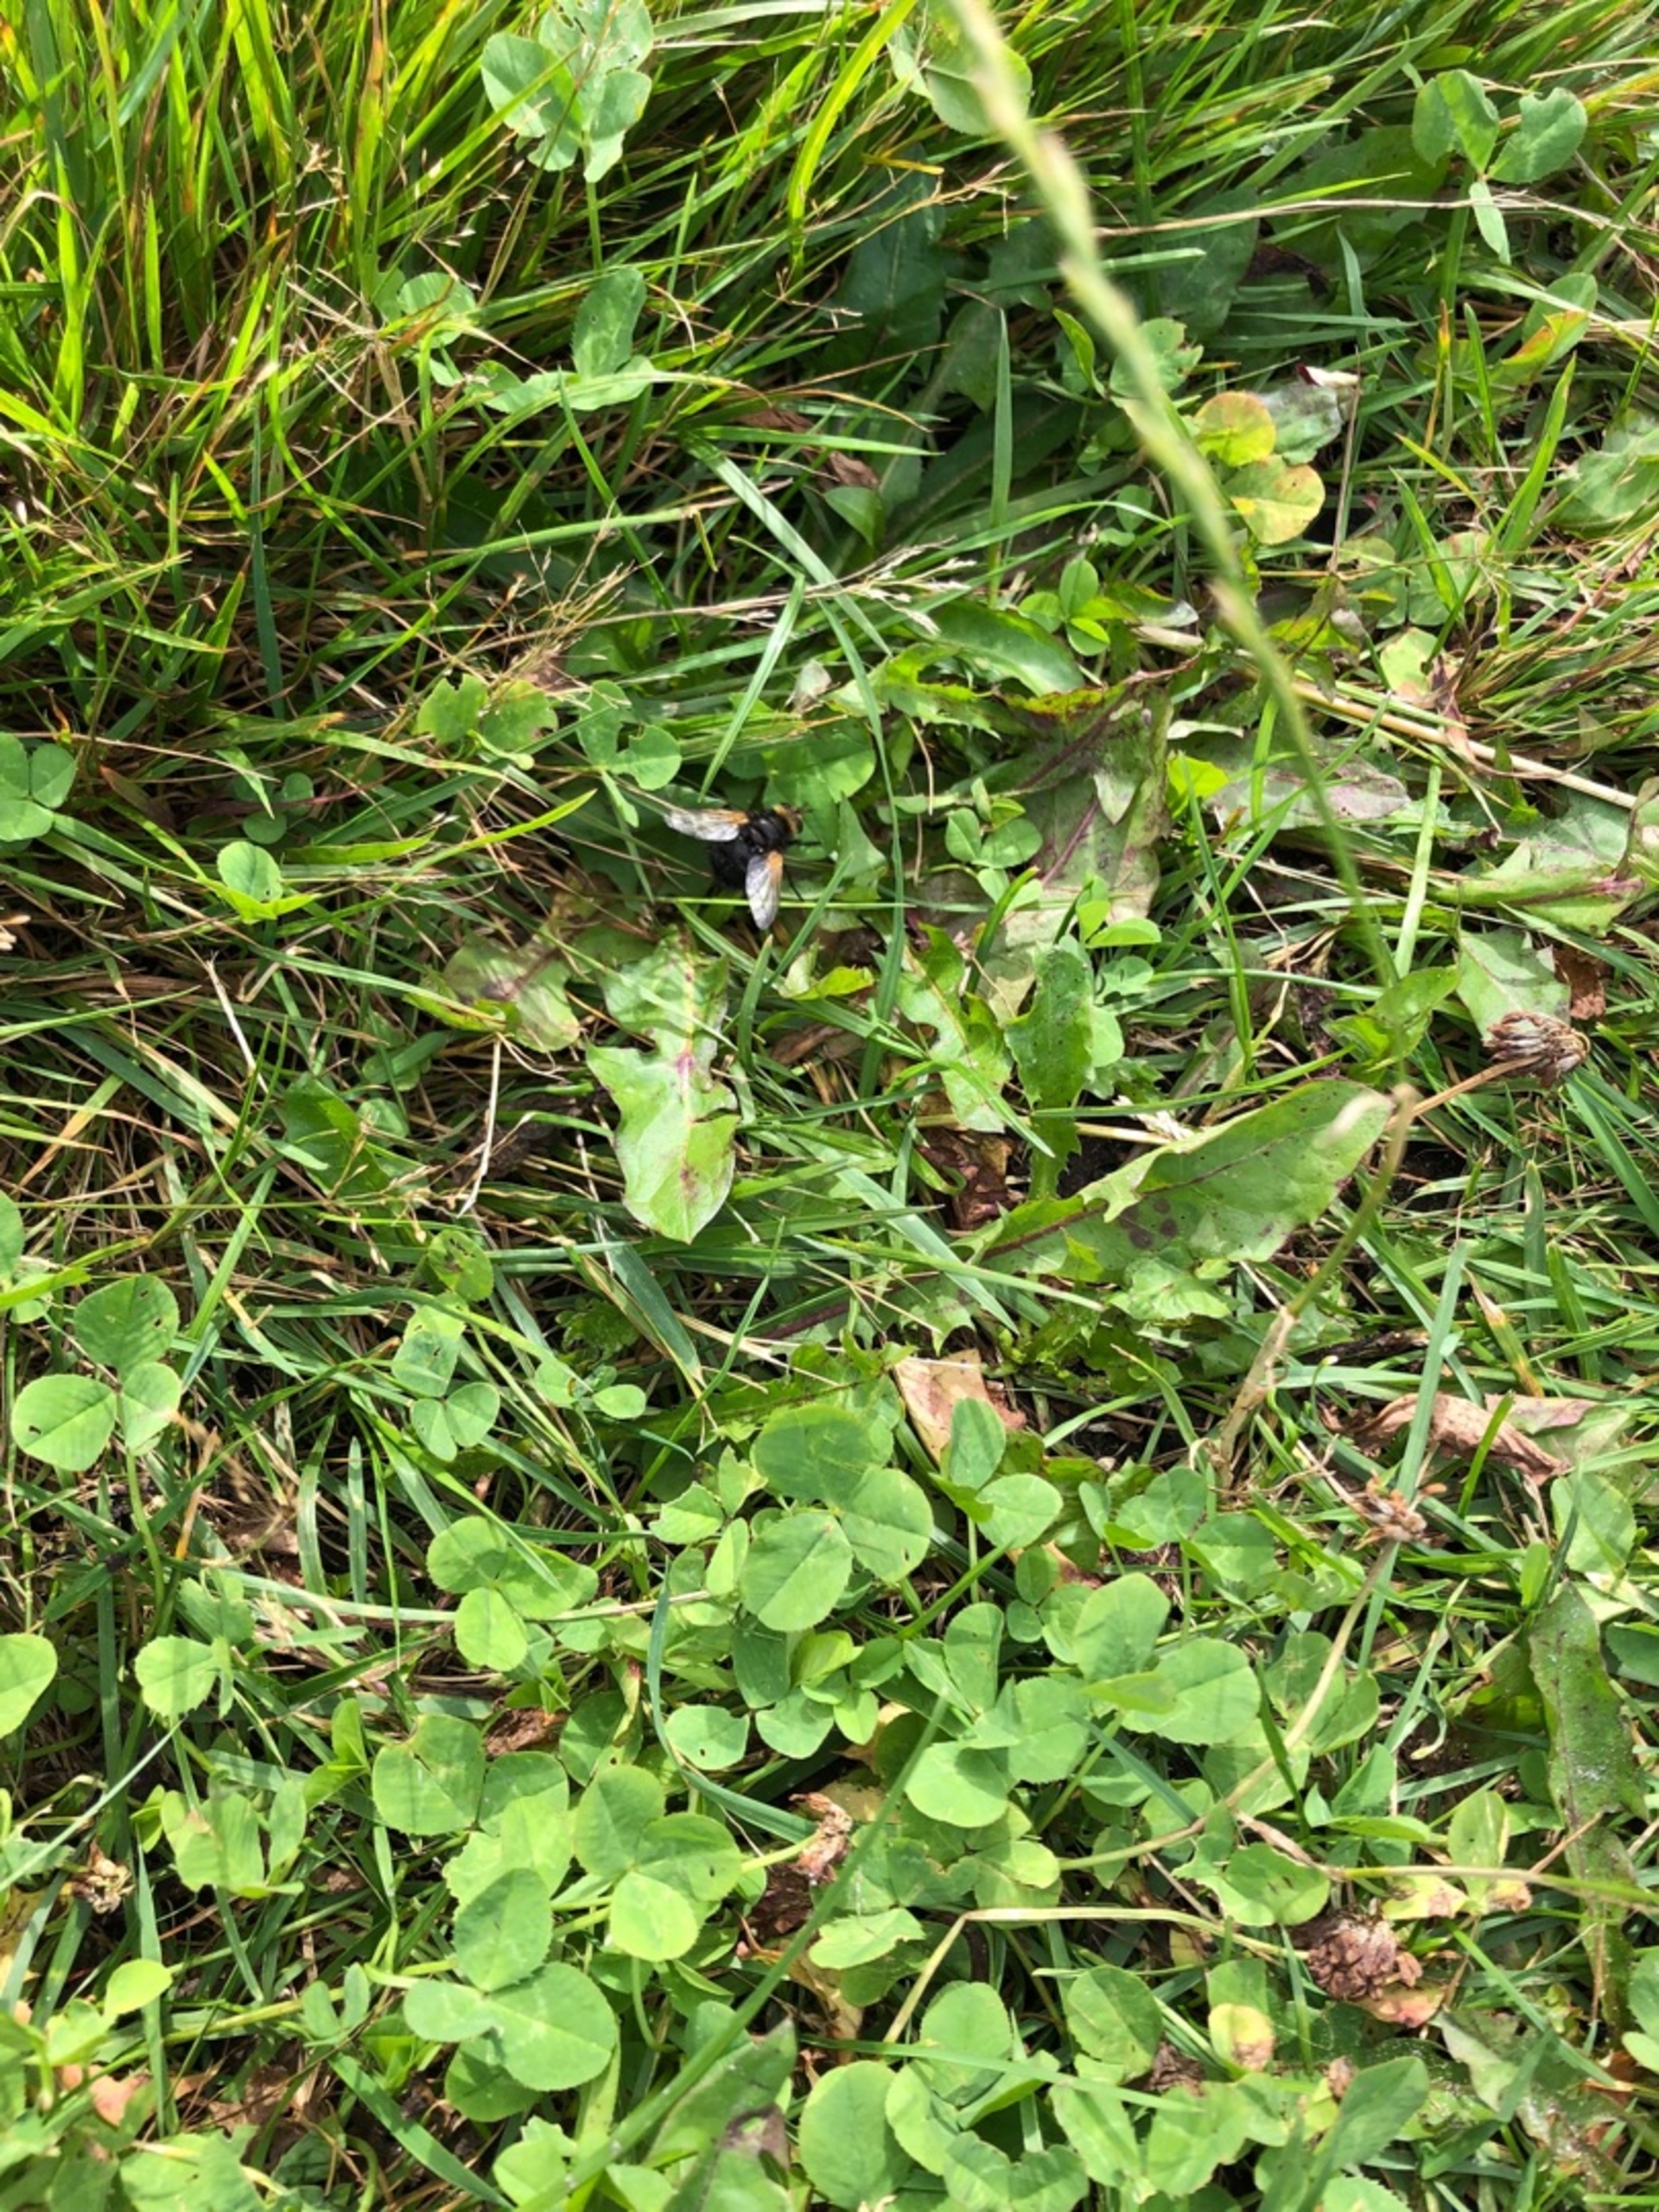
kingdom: Animalia
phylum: Arthropoda
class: Insecta
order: Diptera
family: Tachinidae
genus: Tachina
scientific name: Tachina grossa
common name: Kæmpefluen Harald
